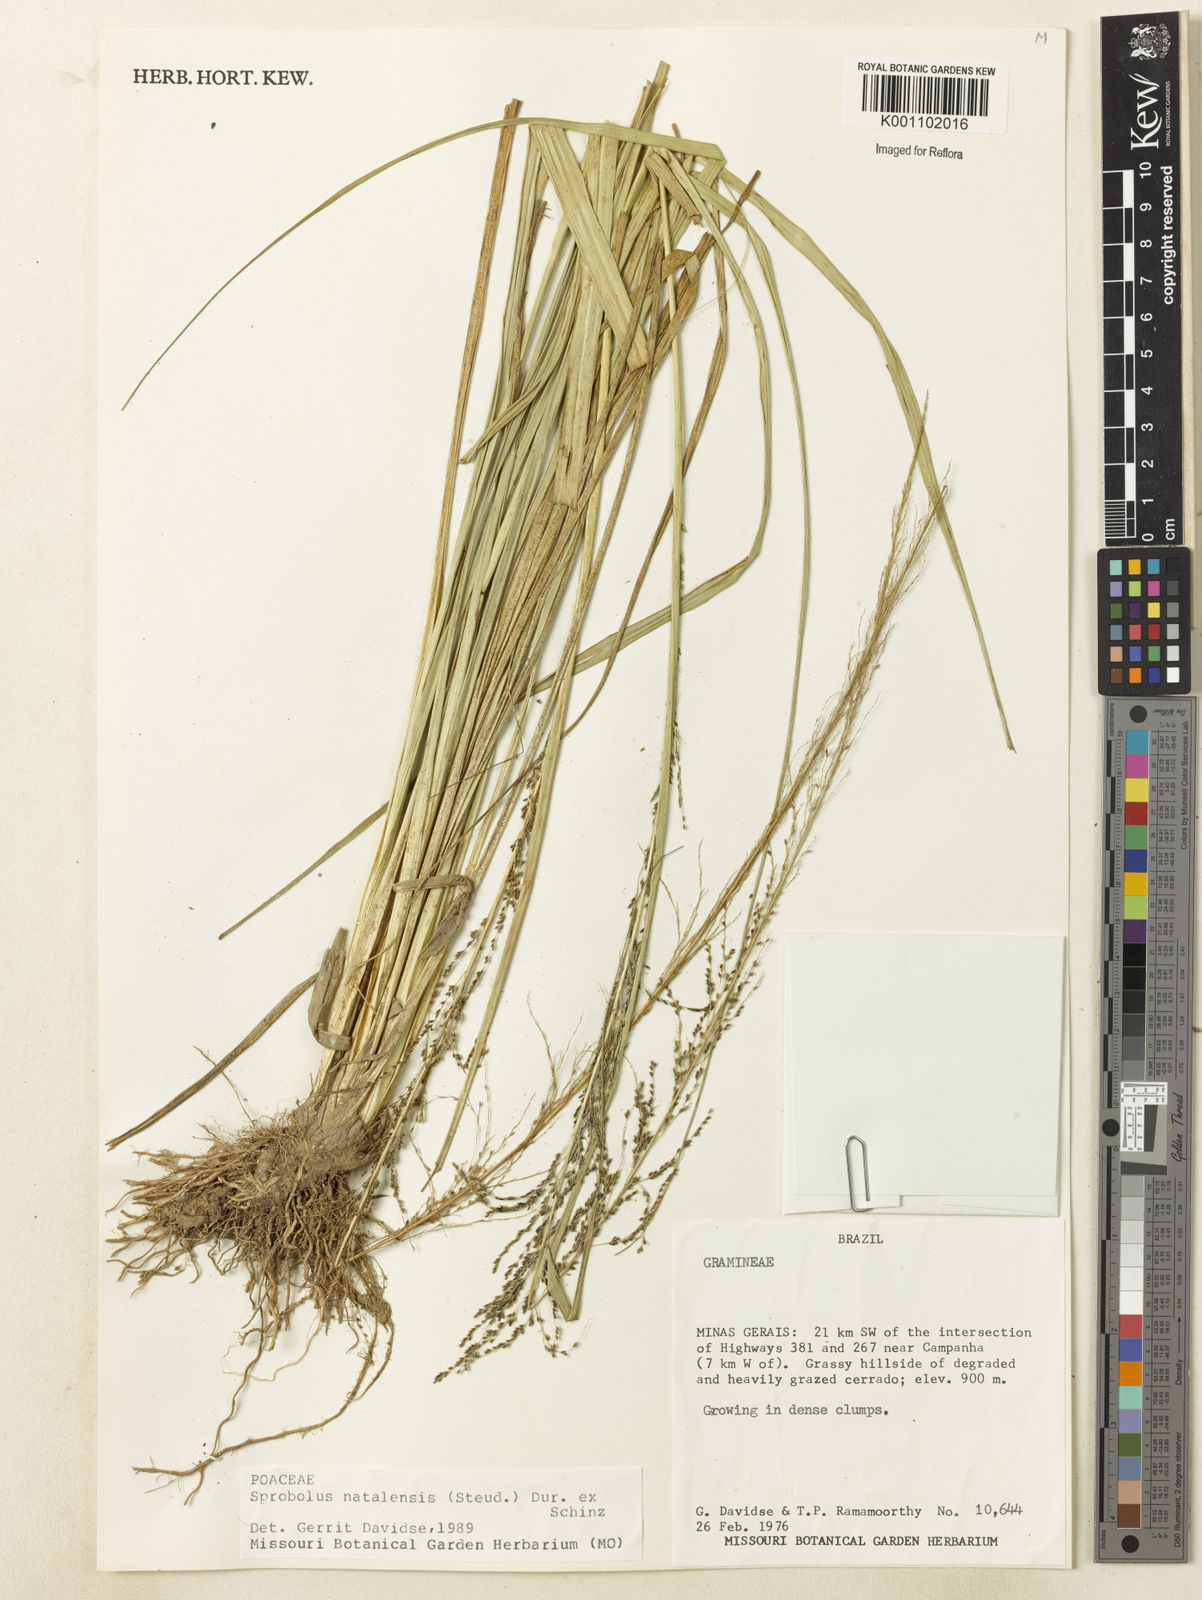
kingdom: Plantae
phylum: Tracheophyta
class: Liliopsida
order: Poales
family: Poaceae
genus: Sporobolus
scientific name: Sporobolus natalensis
